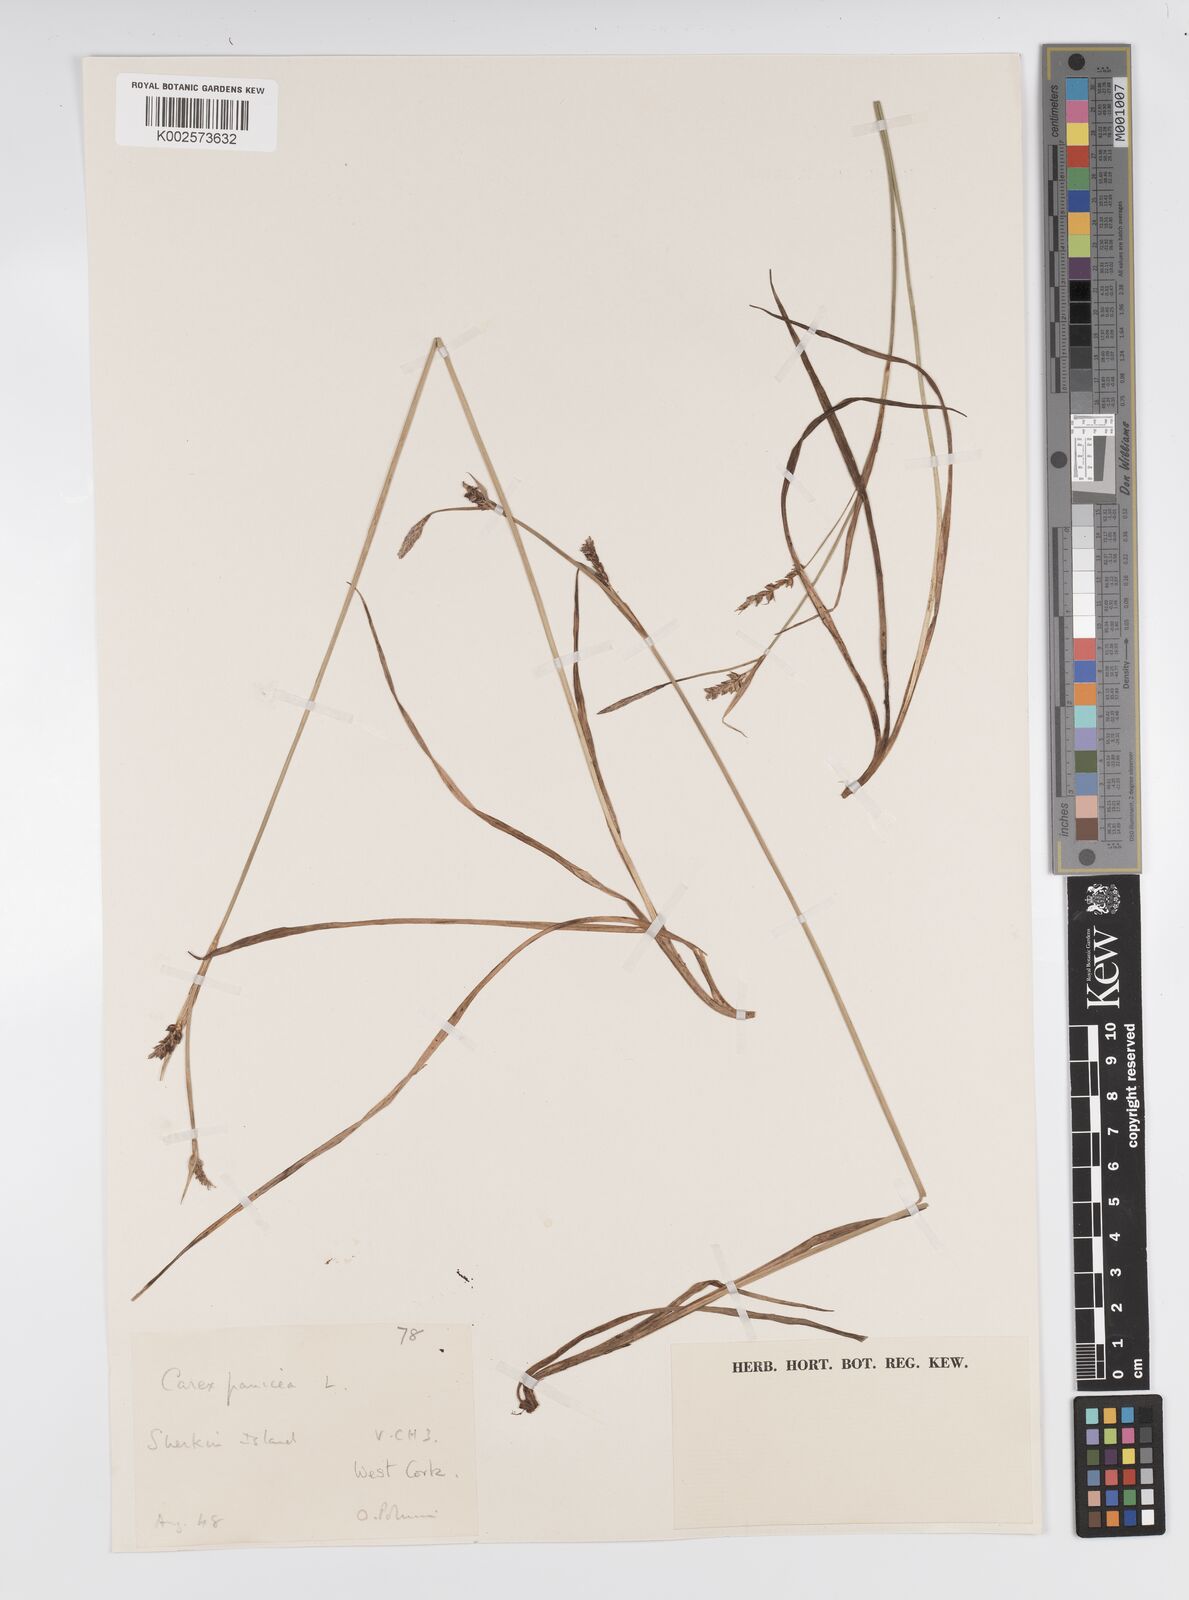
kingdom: Plantae
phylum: Tracheophyta
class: Liliopsida
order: Poales
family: Cyperaceae
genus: Carex
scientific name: Carex panicea
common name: Carnation sedge
